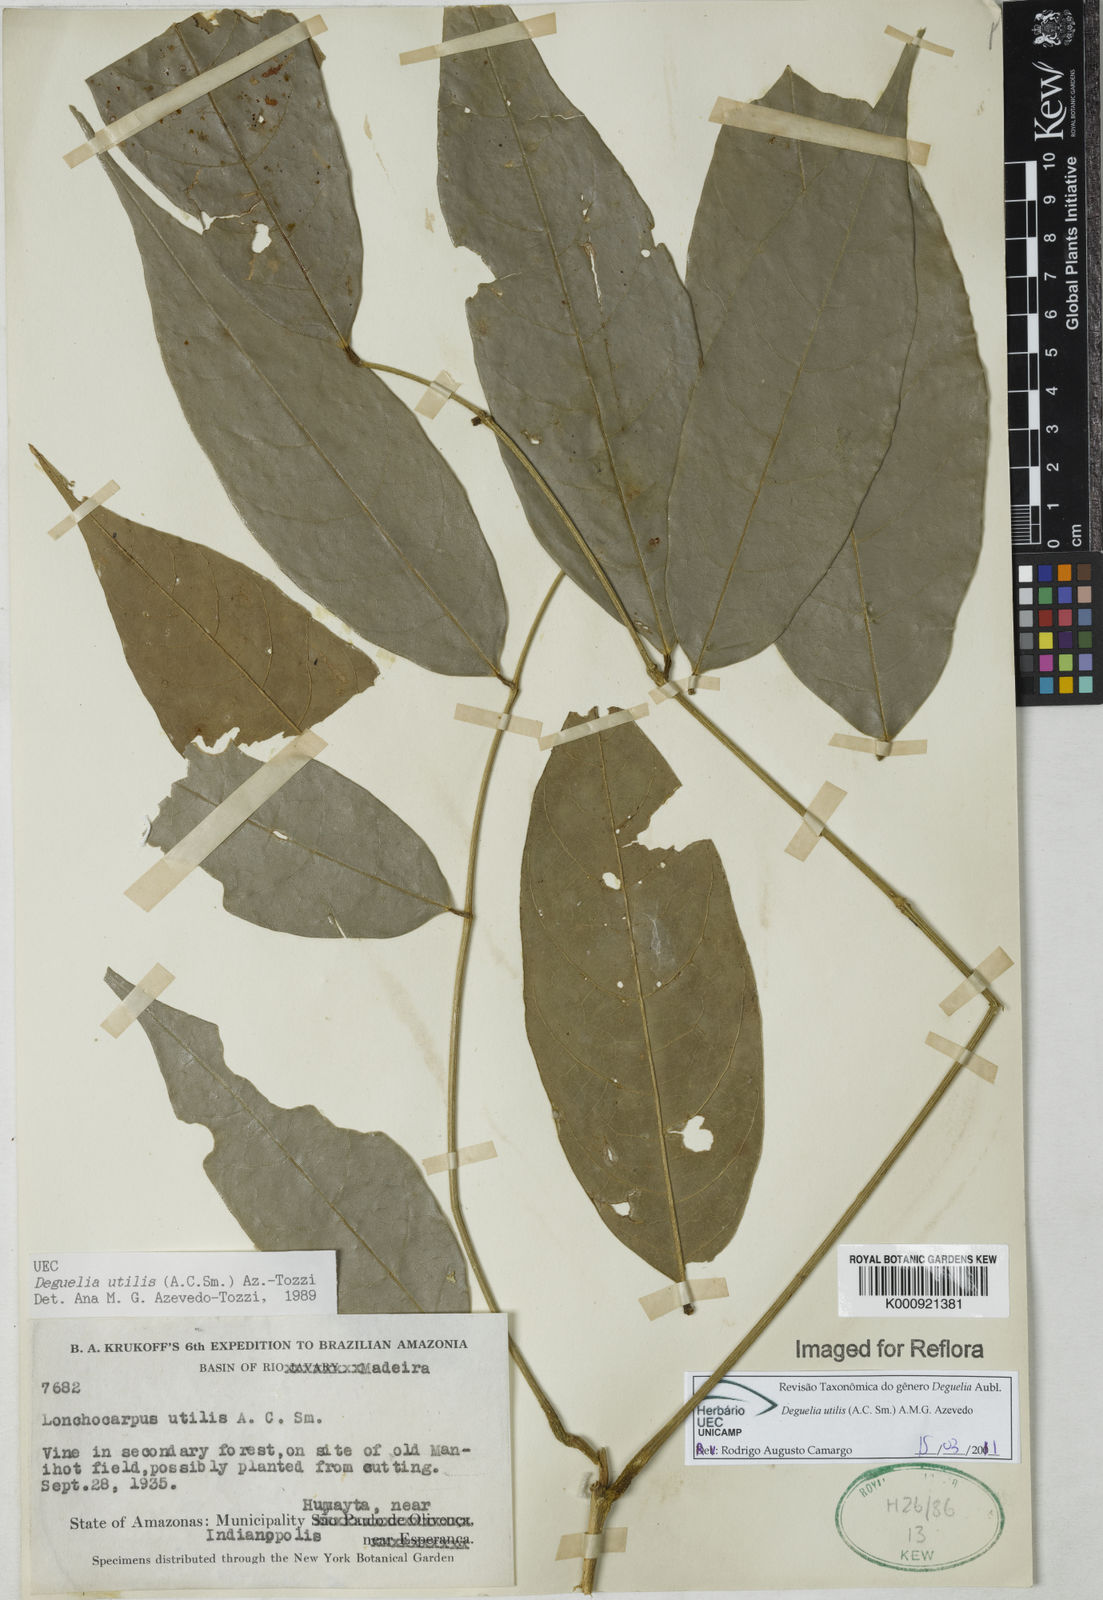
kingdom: Plantae
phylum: Tracheophyta
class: Magnoliopsida
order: Fabales
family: Fabaceae
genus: Deguelia
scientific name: Deguelia utilis
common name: Timbo
